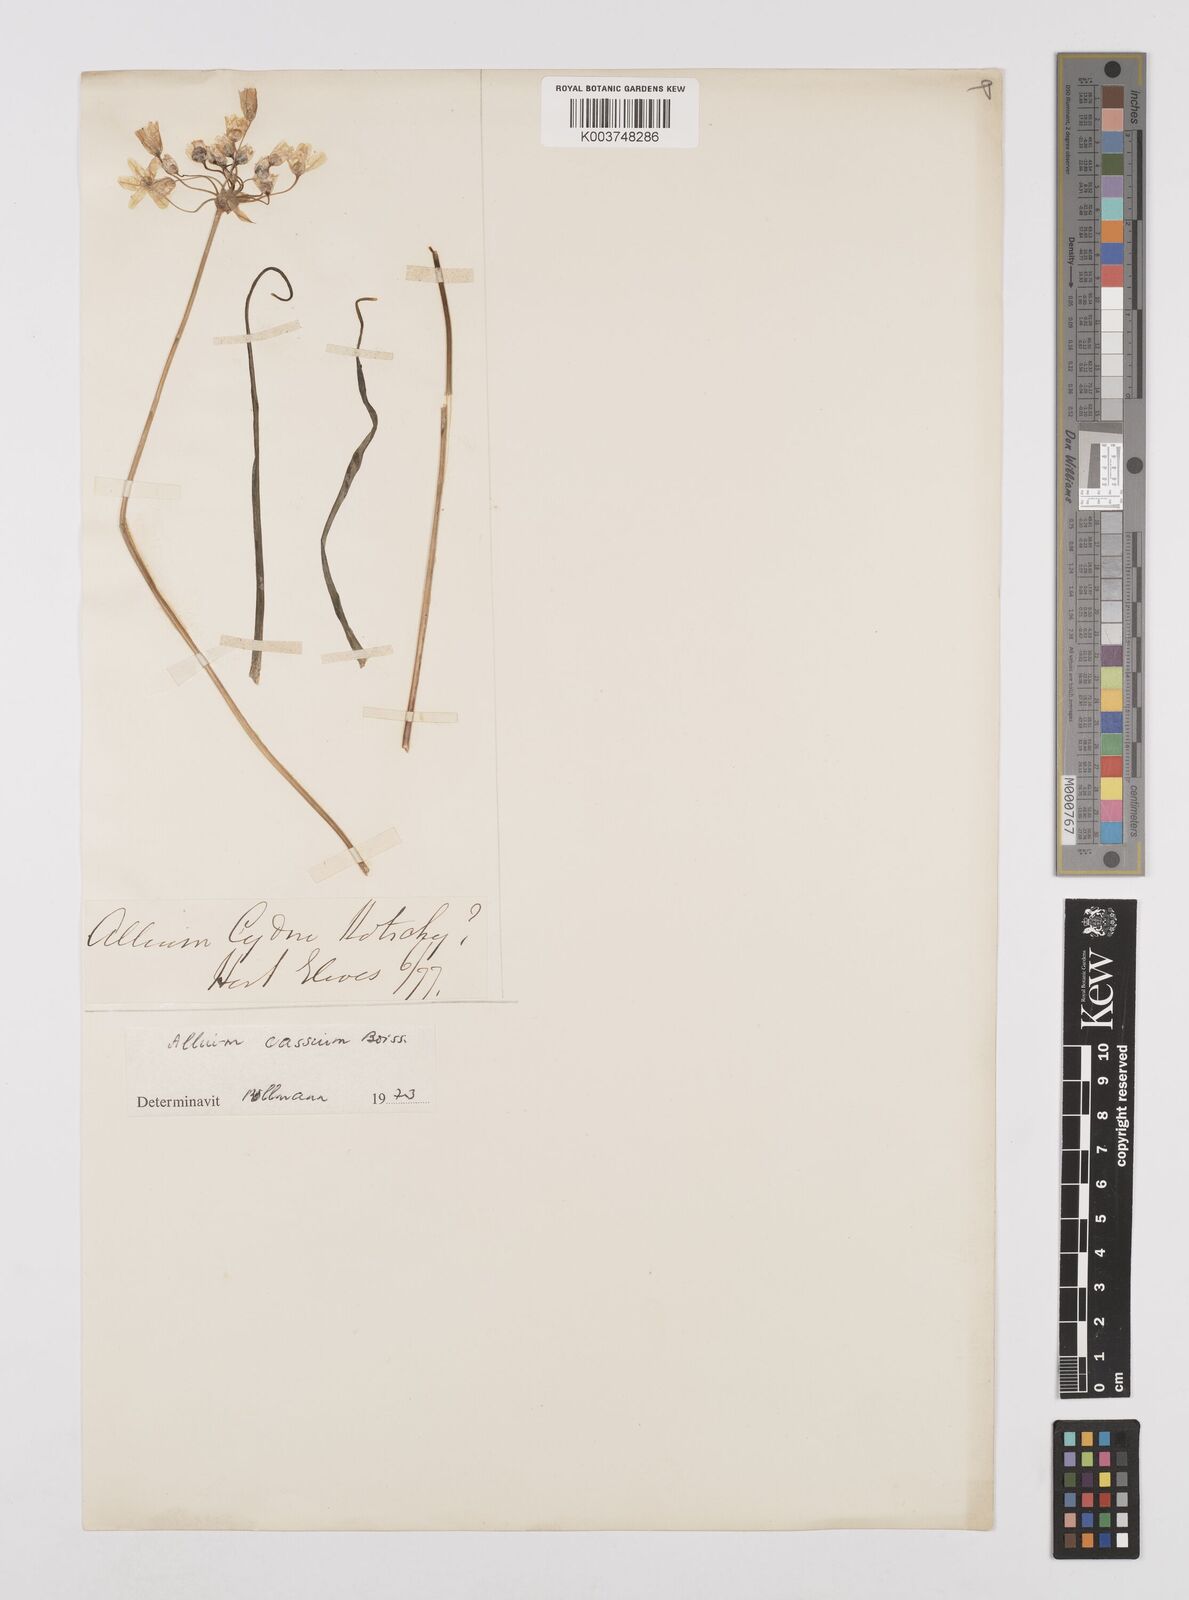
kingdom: Plantae
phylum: Tracheophyta
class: Liliopsida
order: Asparagales
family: Amaryllidaceae
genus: Allium
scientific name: Allium cassium
